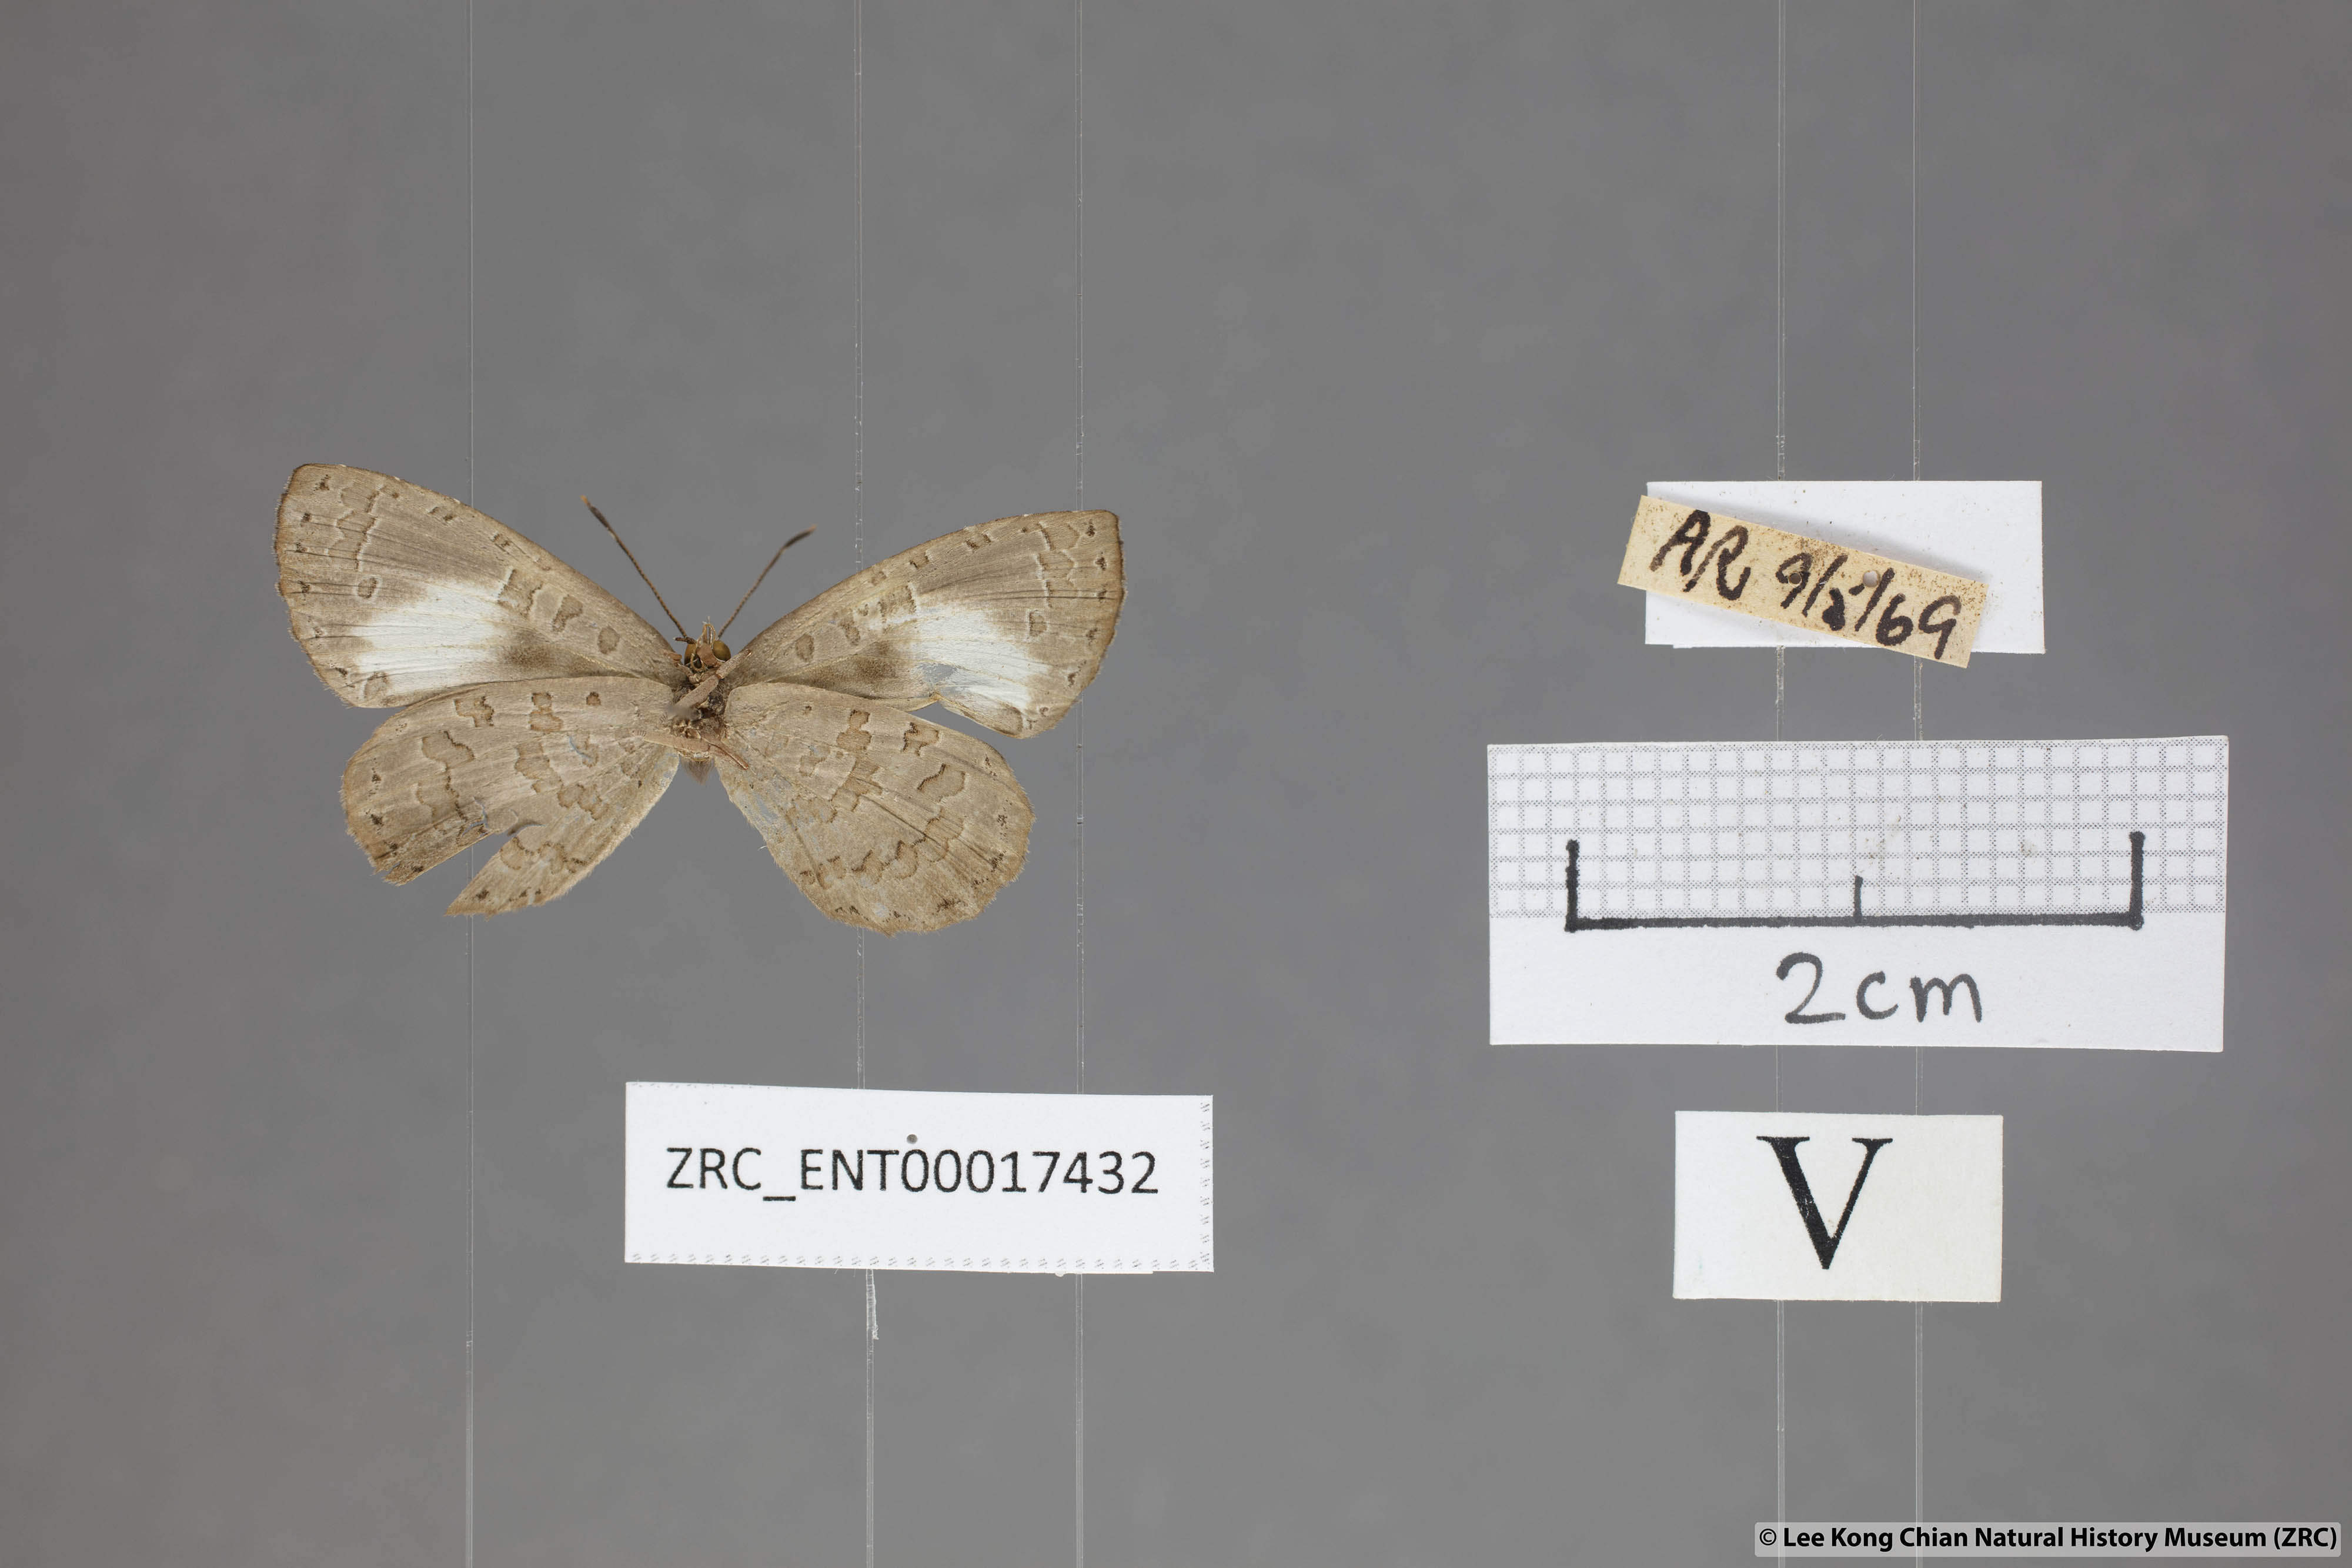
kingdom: Animalia
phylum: Arthropoda
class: Insecta
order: Lepidoptera
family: Lycaenidae
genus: Miletus
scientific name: Miletus biggsii
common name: Bigg's brownie
